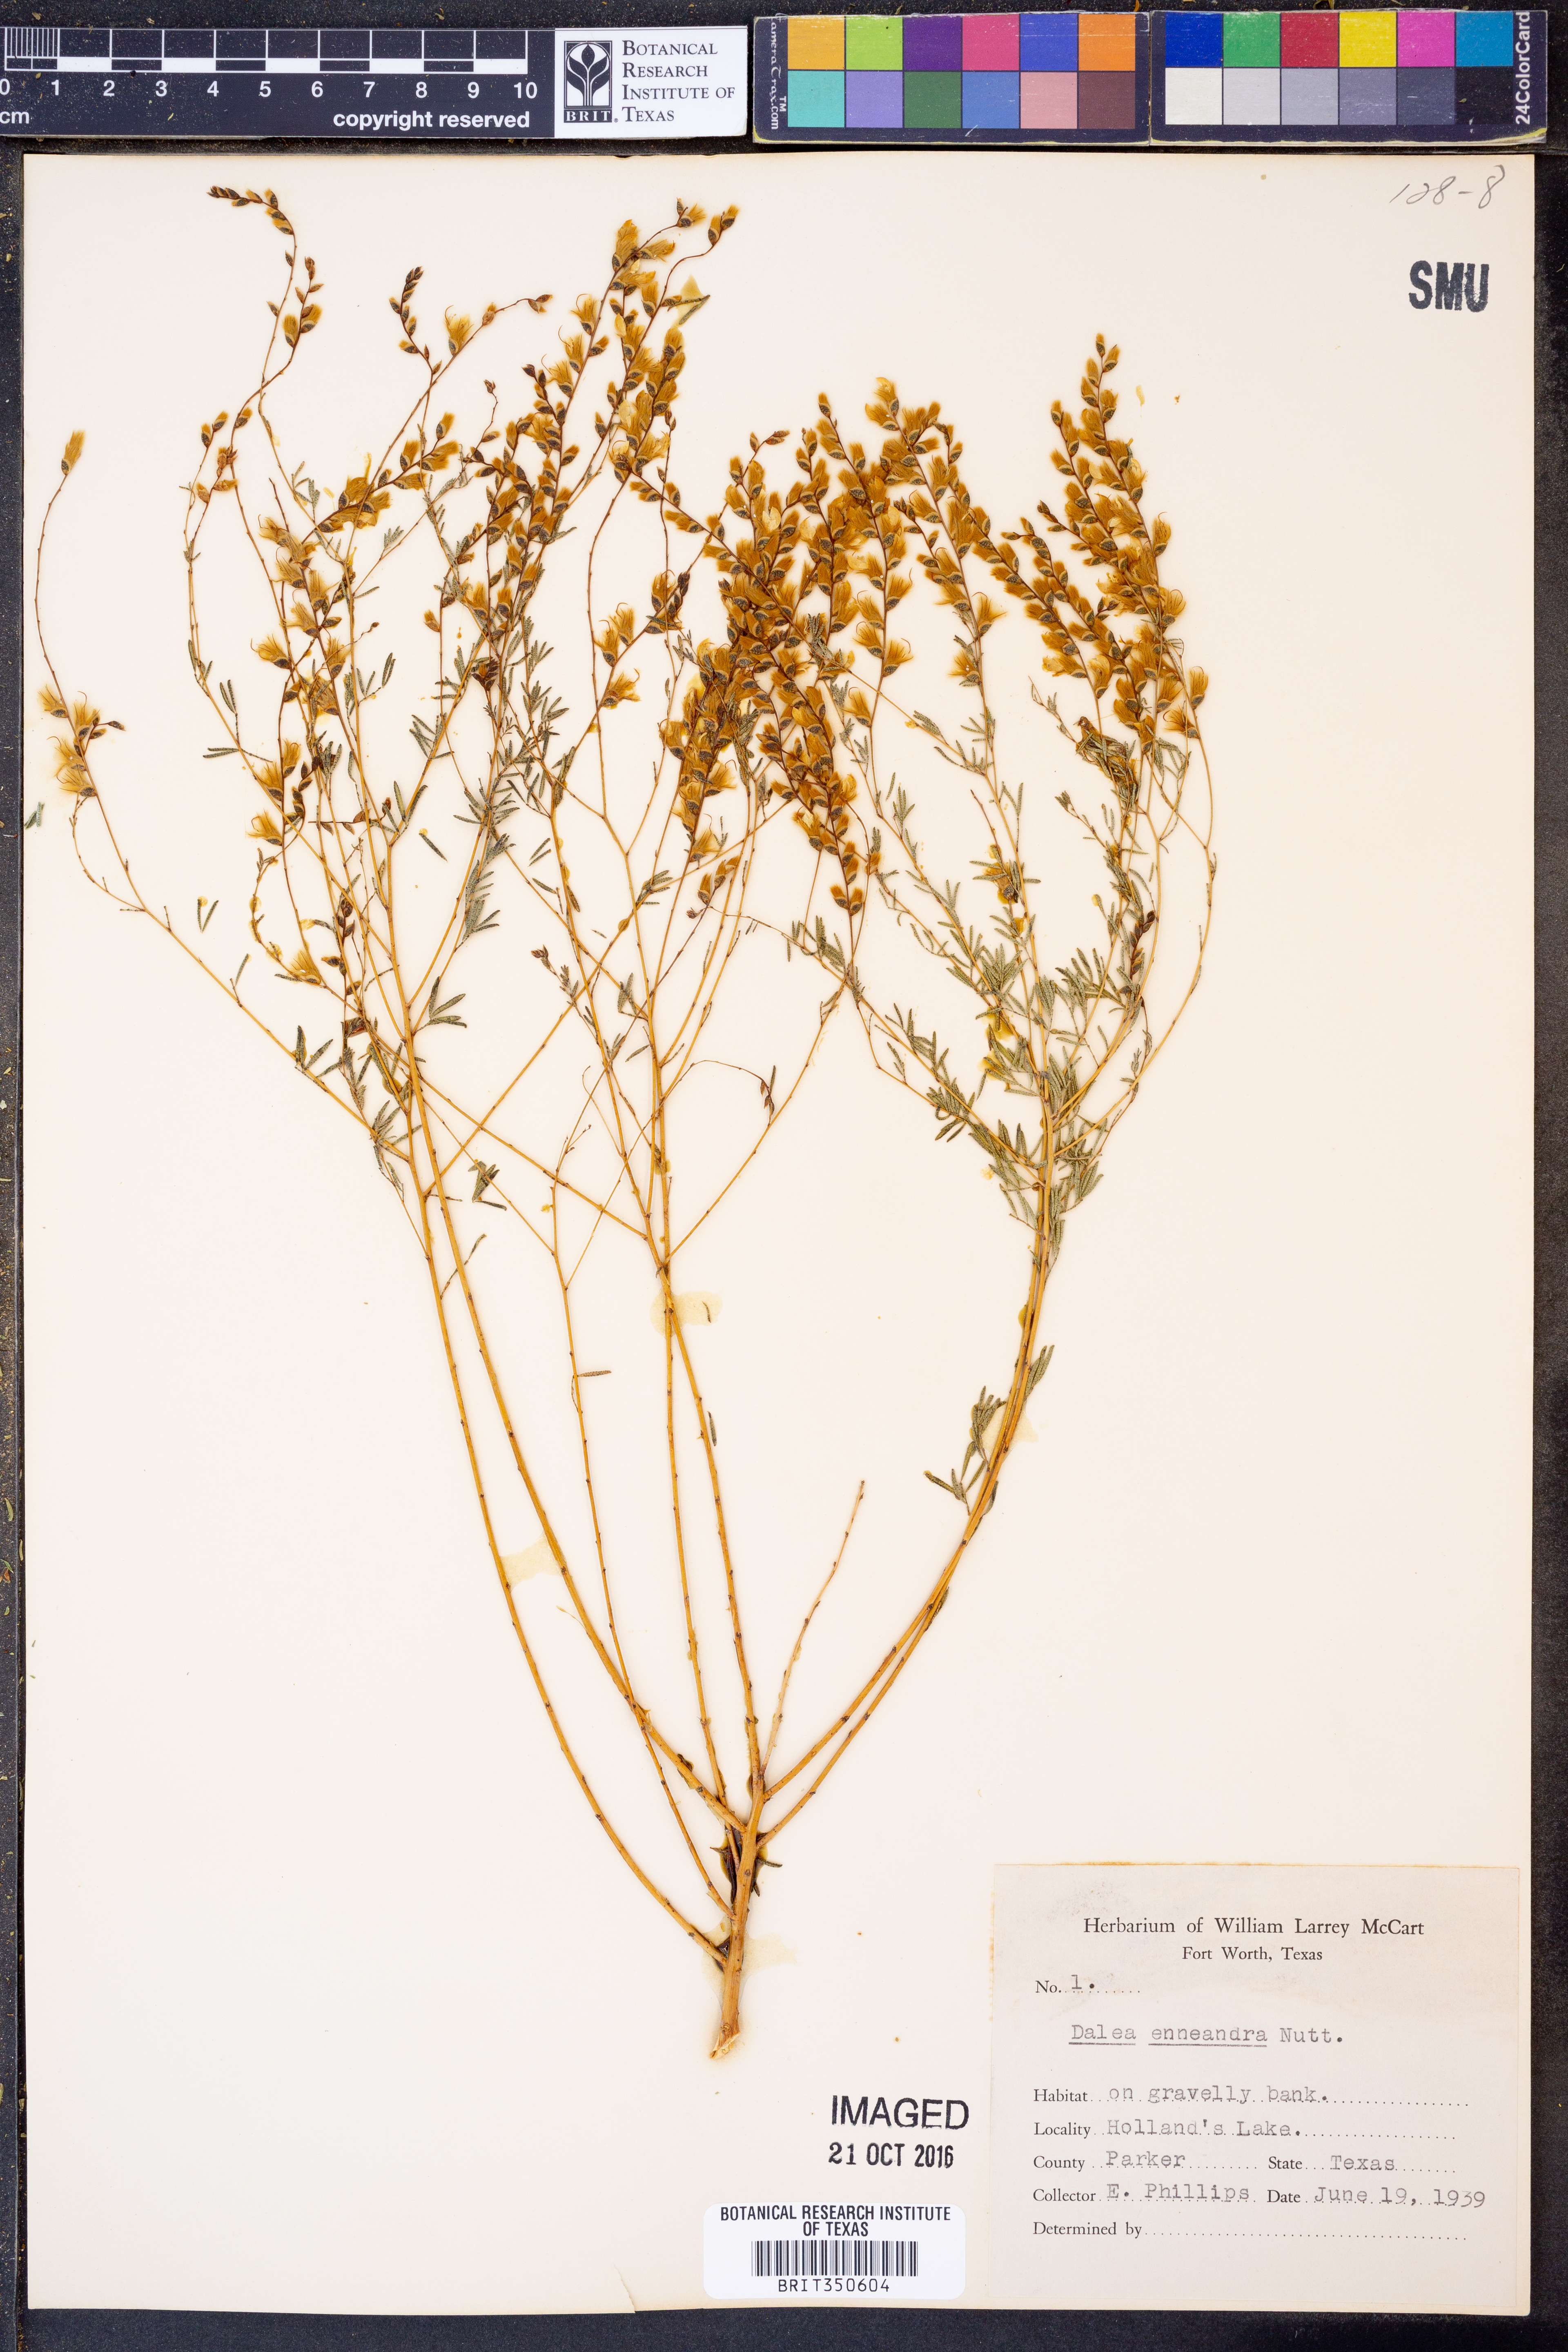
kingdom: Plantae
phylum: Tracheophyta
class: Magnoliopsida
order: Fabales
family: Fabaceae
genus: Dalea
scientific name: Dalea enneandra
